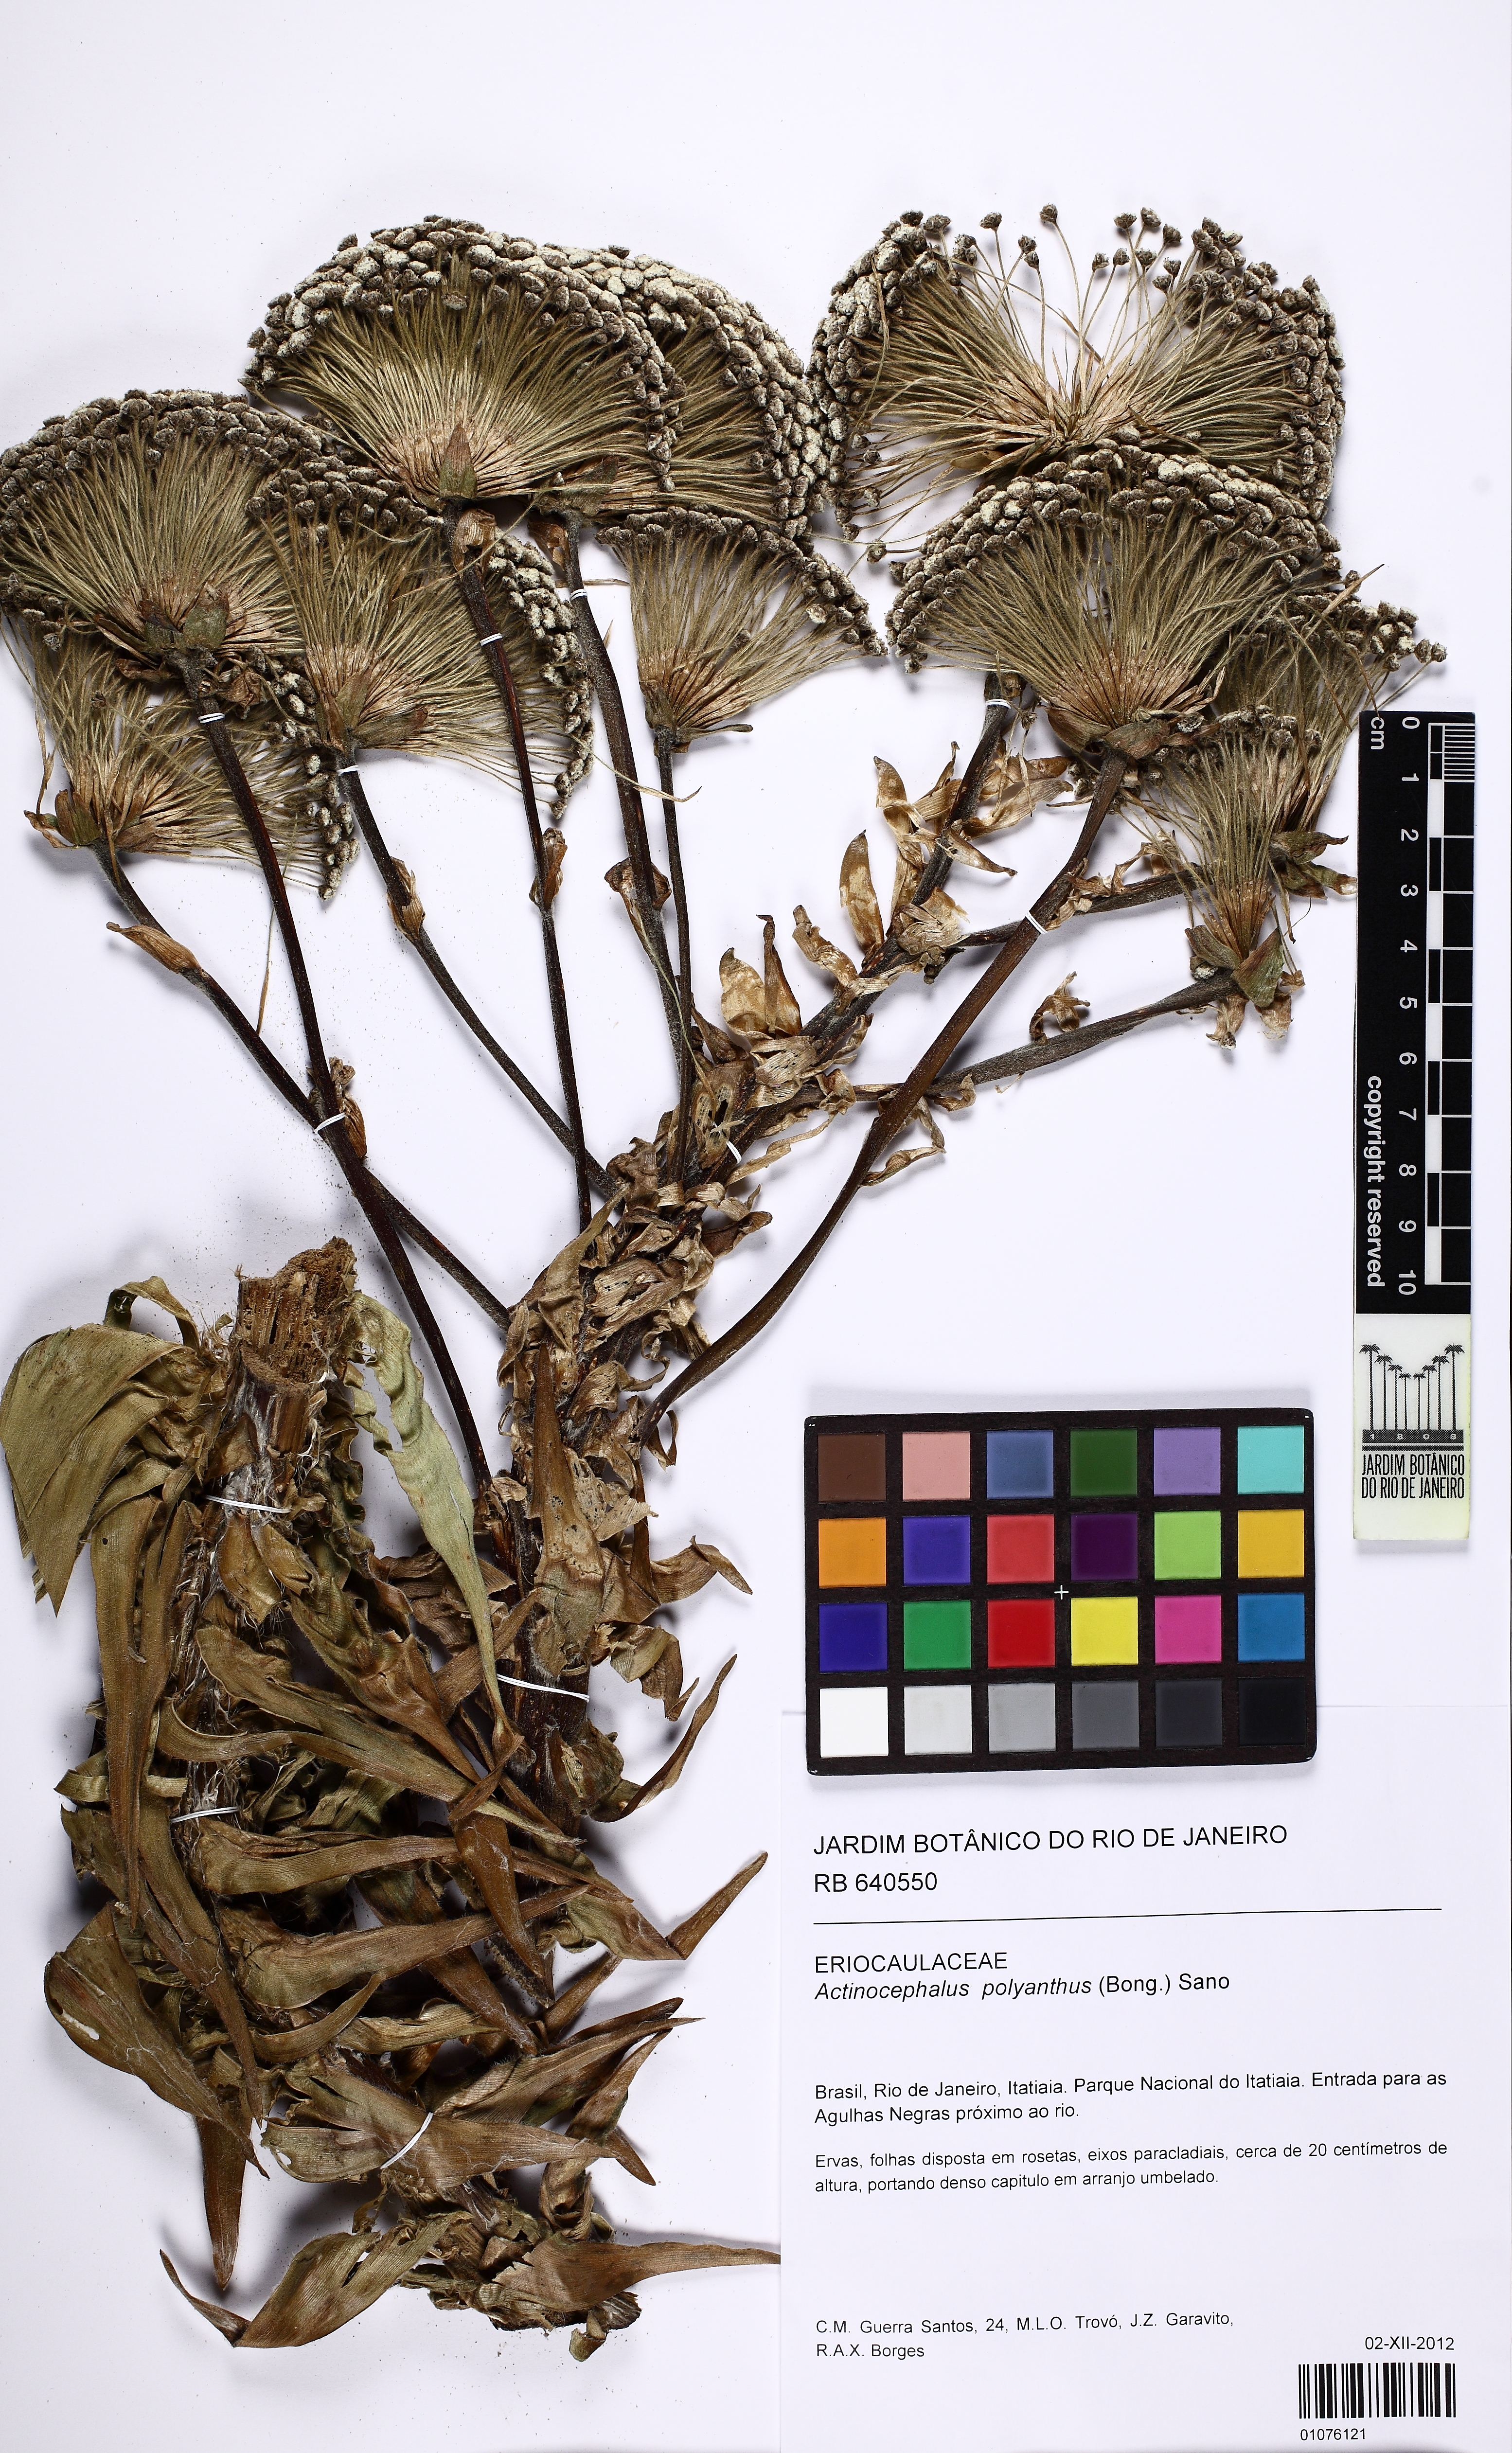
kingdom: Plantae
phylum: Tracheophyta
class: Liliopsida
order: Poales
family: Eriocaulaceae
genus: Paepalanthus
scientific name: Paepalanthus polyanthus
